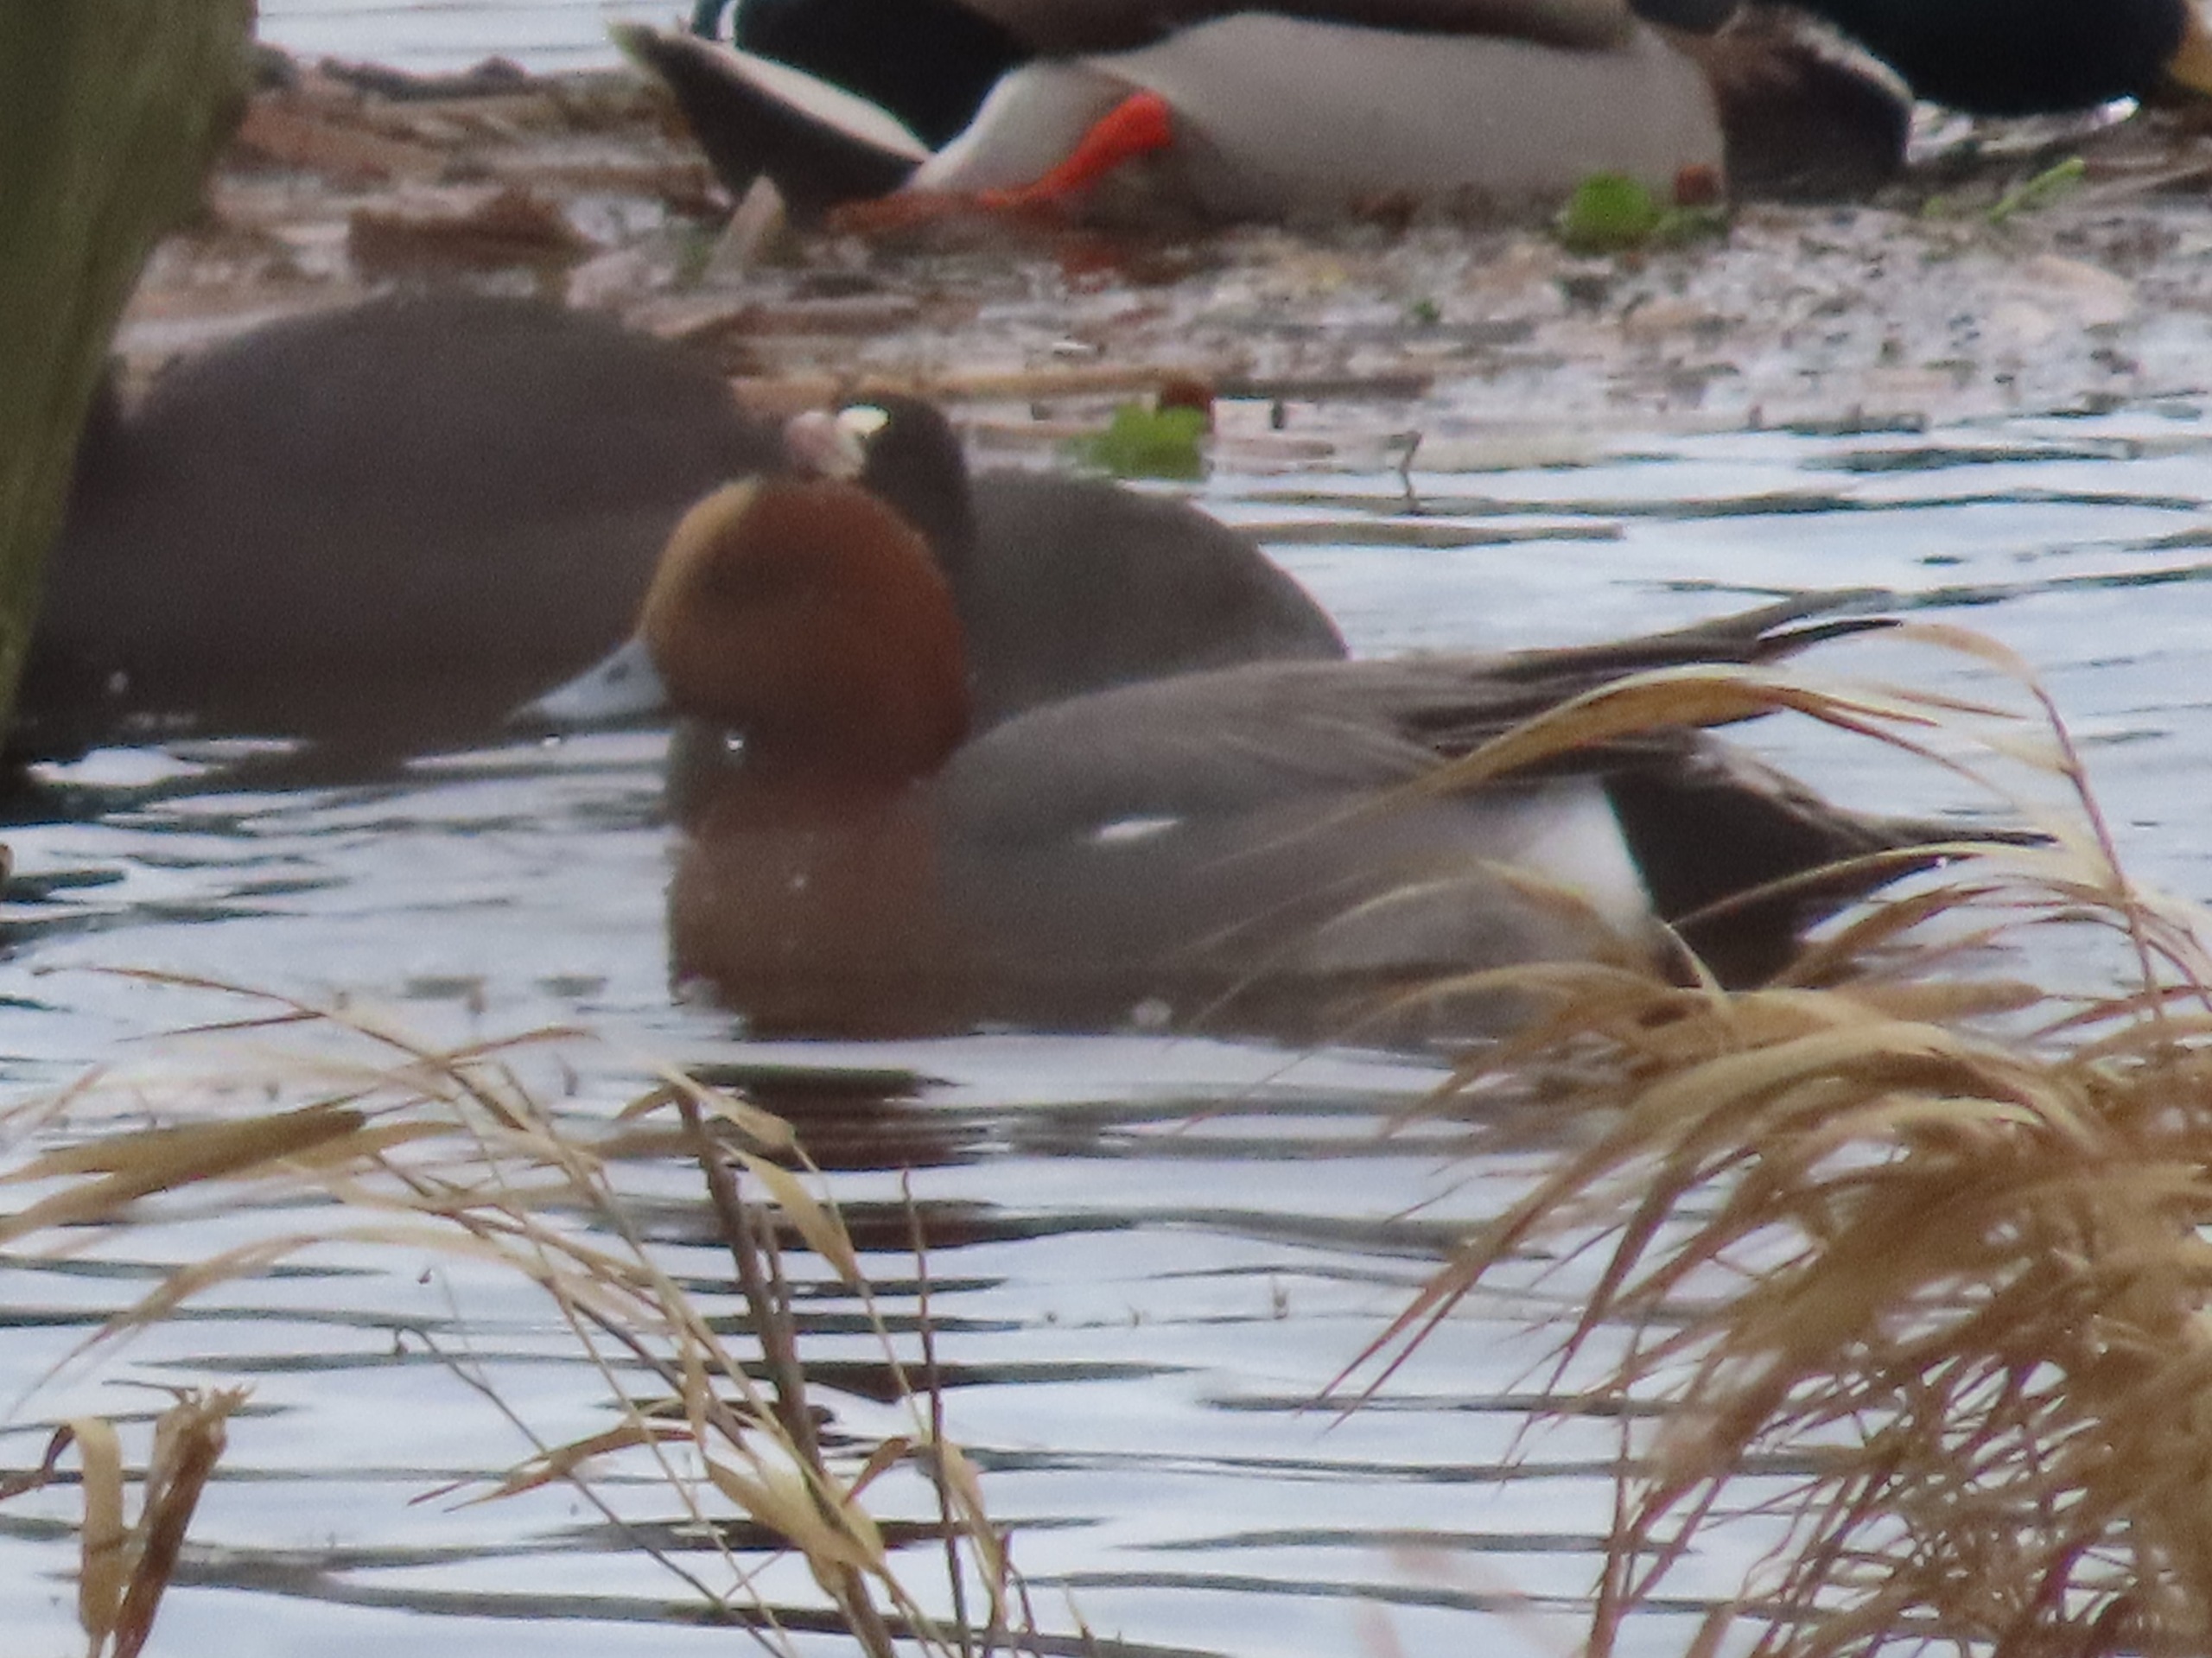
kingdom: Animalia
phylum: Chordata
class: Aves
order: Anseriformes
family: Anatidae
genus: Mareca
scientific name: Mareca penelope
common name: Pibeand
